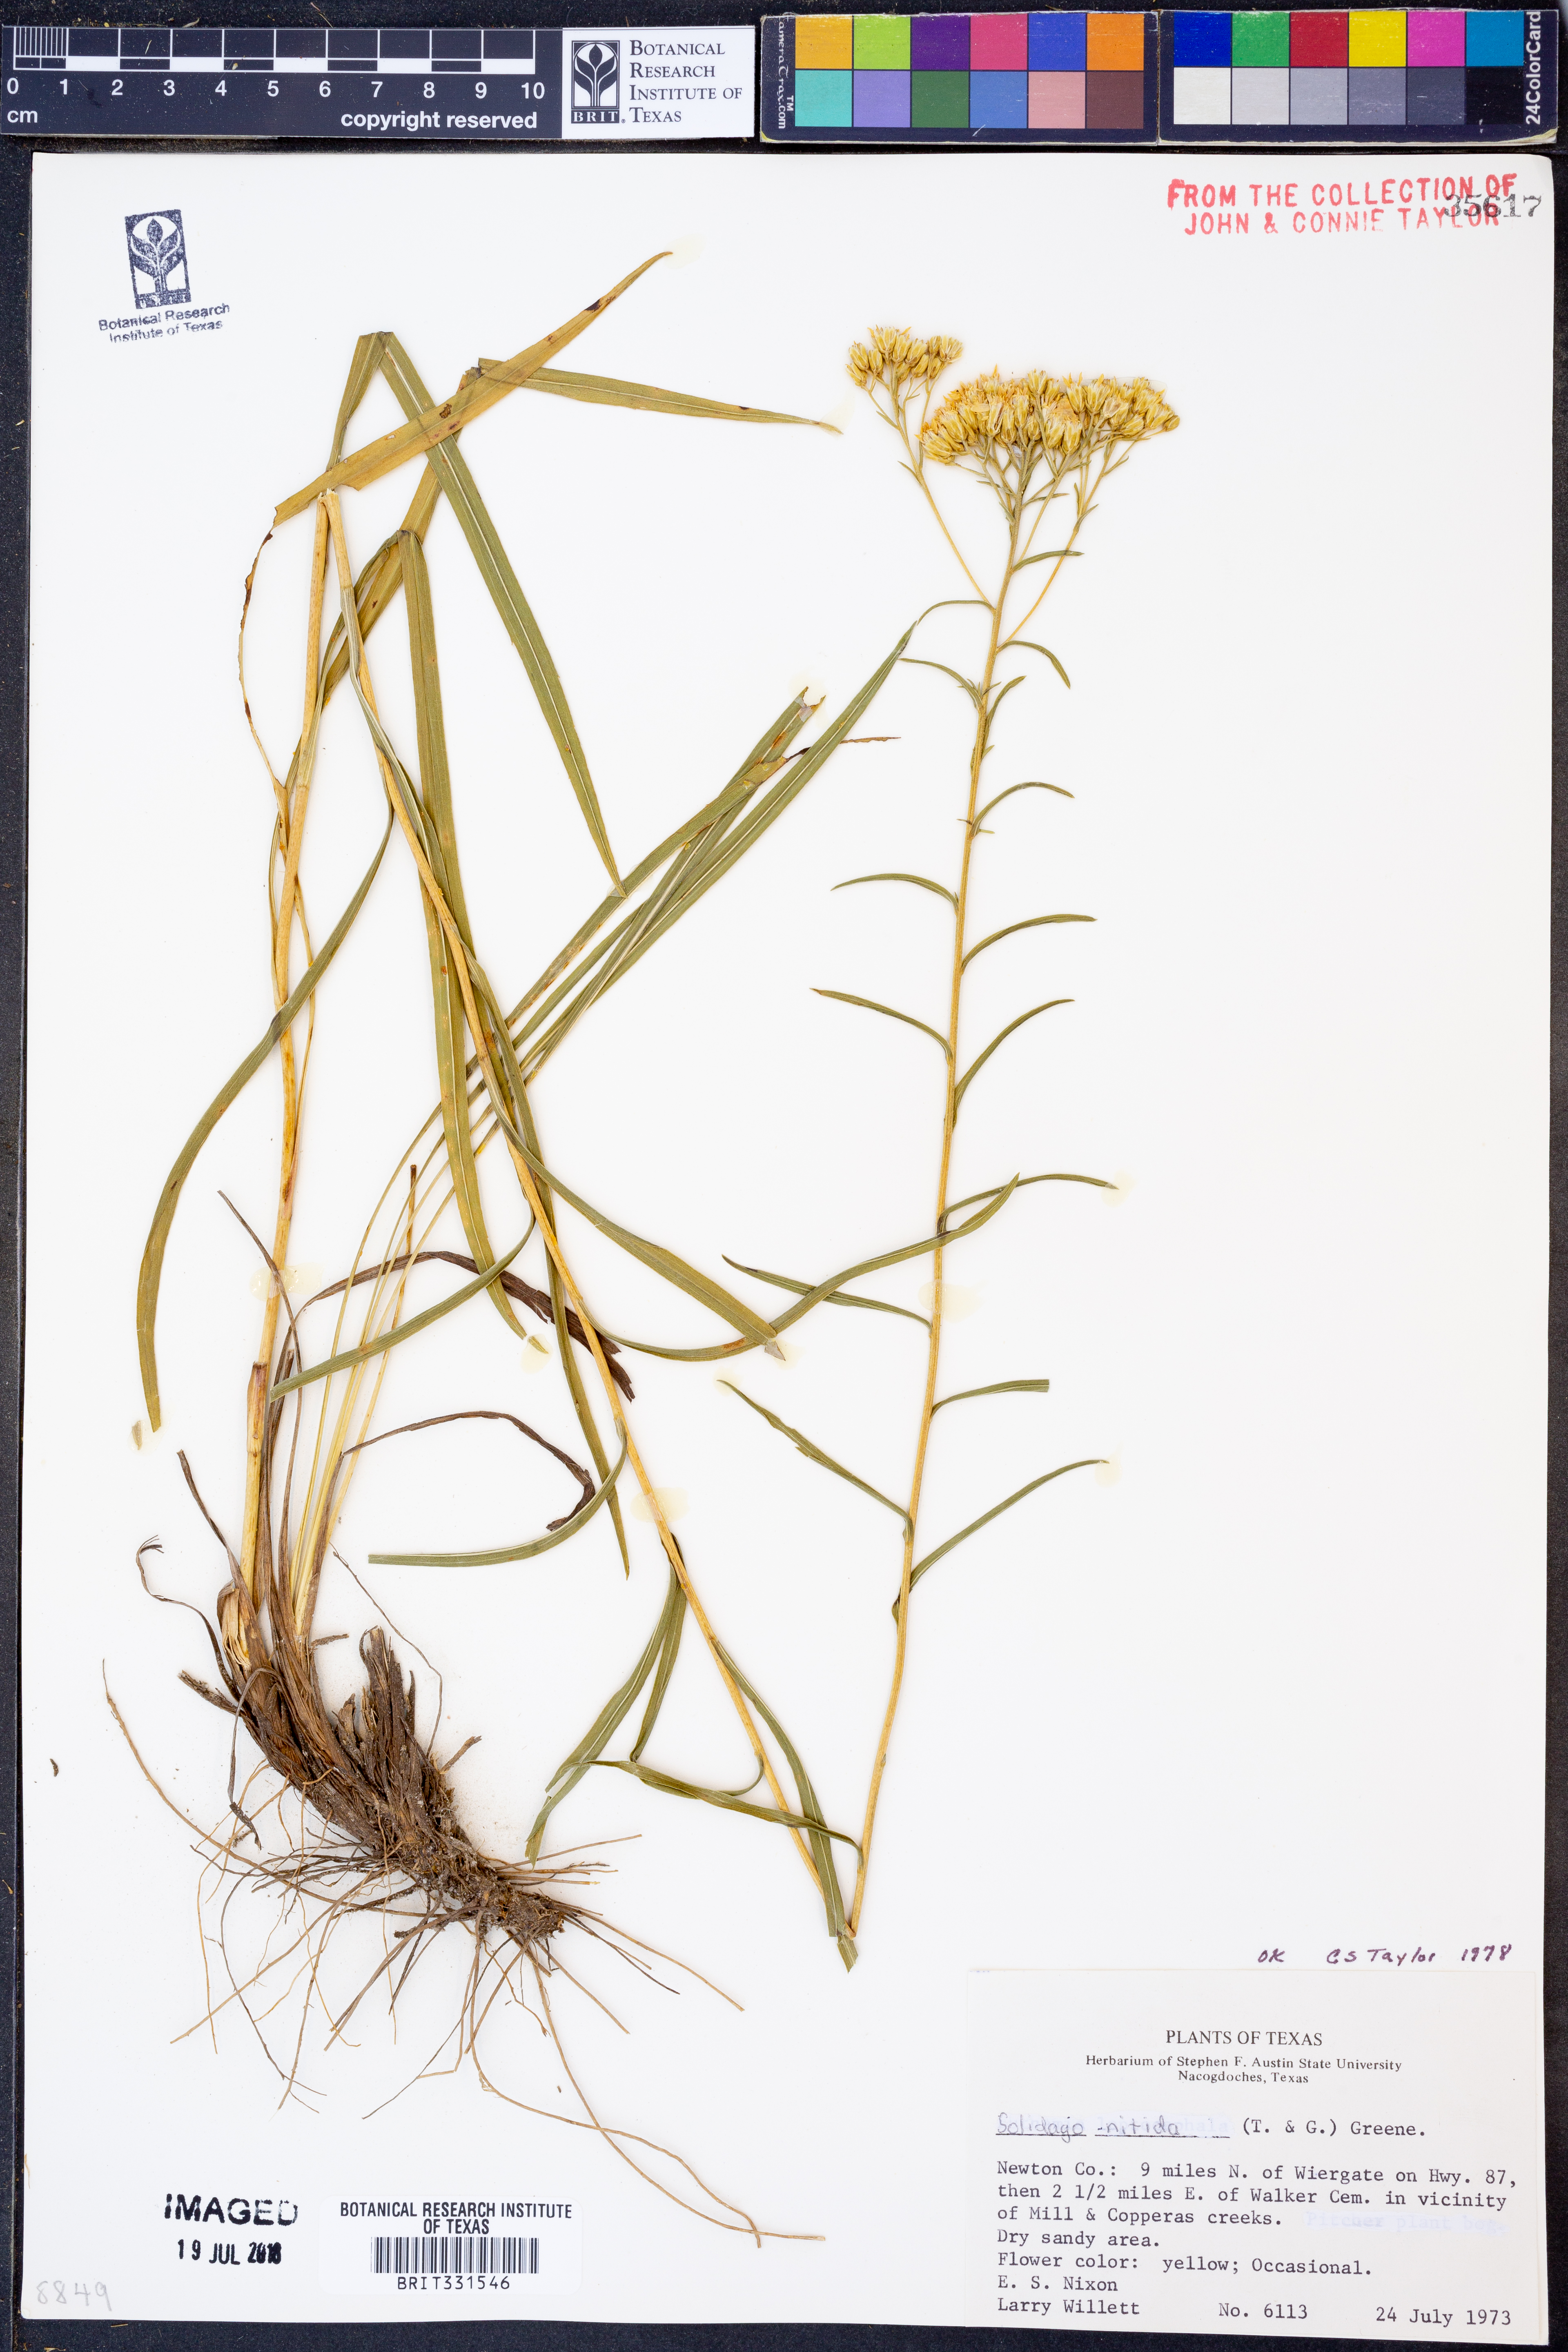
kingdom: Plantae
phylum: Tracheophyta
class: Magnoliopsida
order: Asterales
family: Asteraceae
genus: Solidago
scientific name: Solidago nitida
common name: Shiny goldenrod
